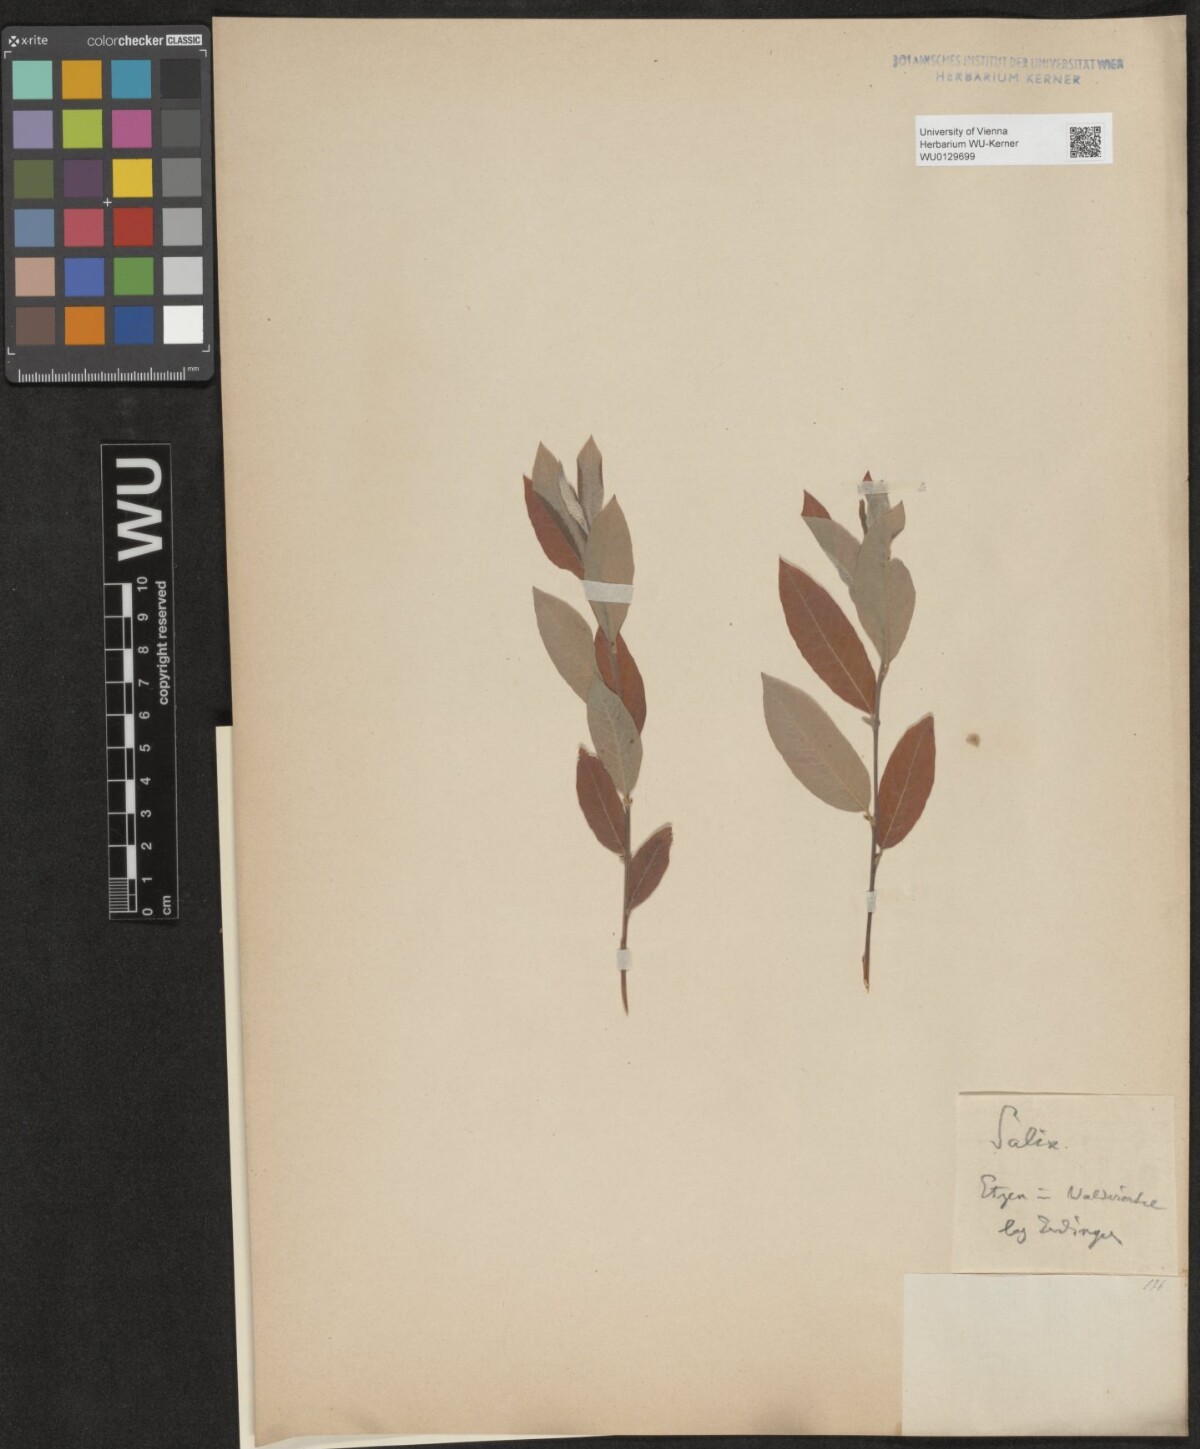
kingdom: Plantae
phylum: Tracheophyta
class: Magnoliopsida
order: Malpighiales
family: Salicaceae
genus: Salix
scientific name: Salix
